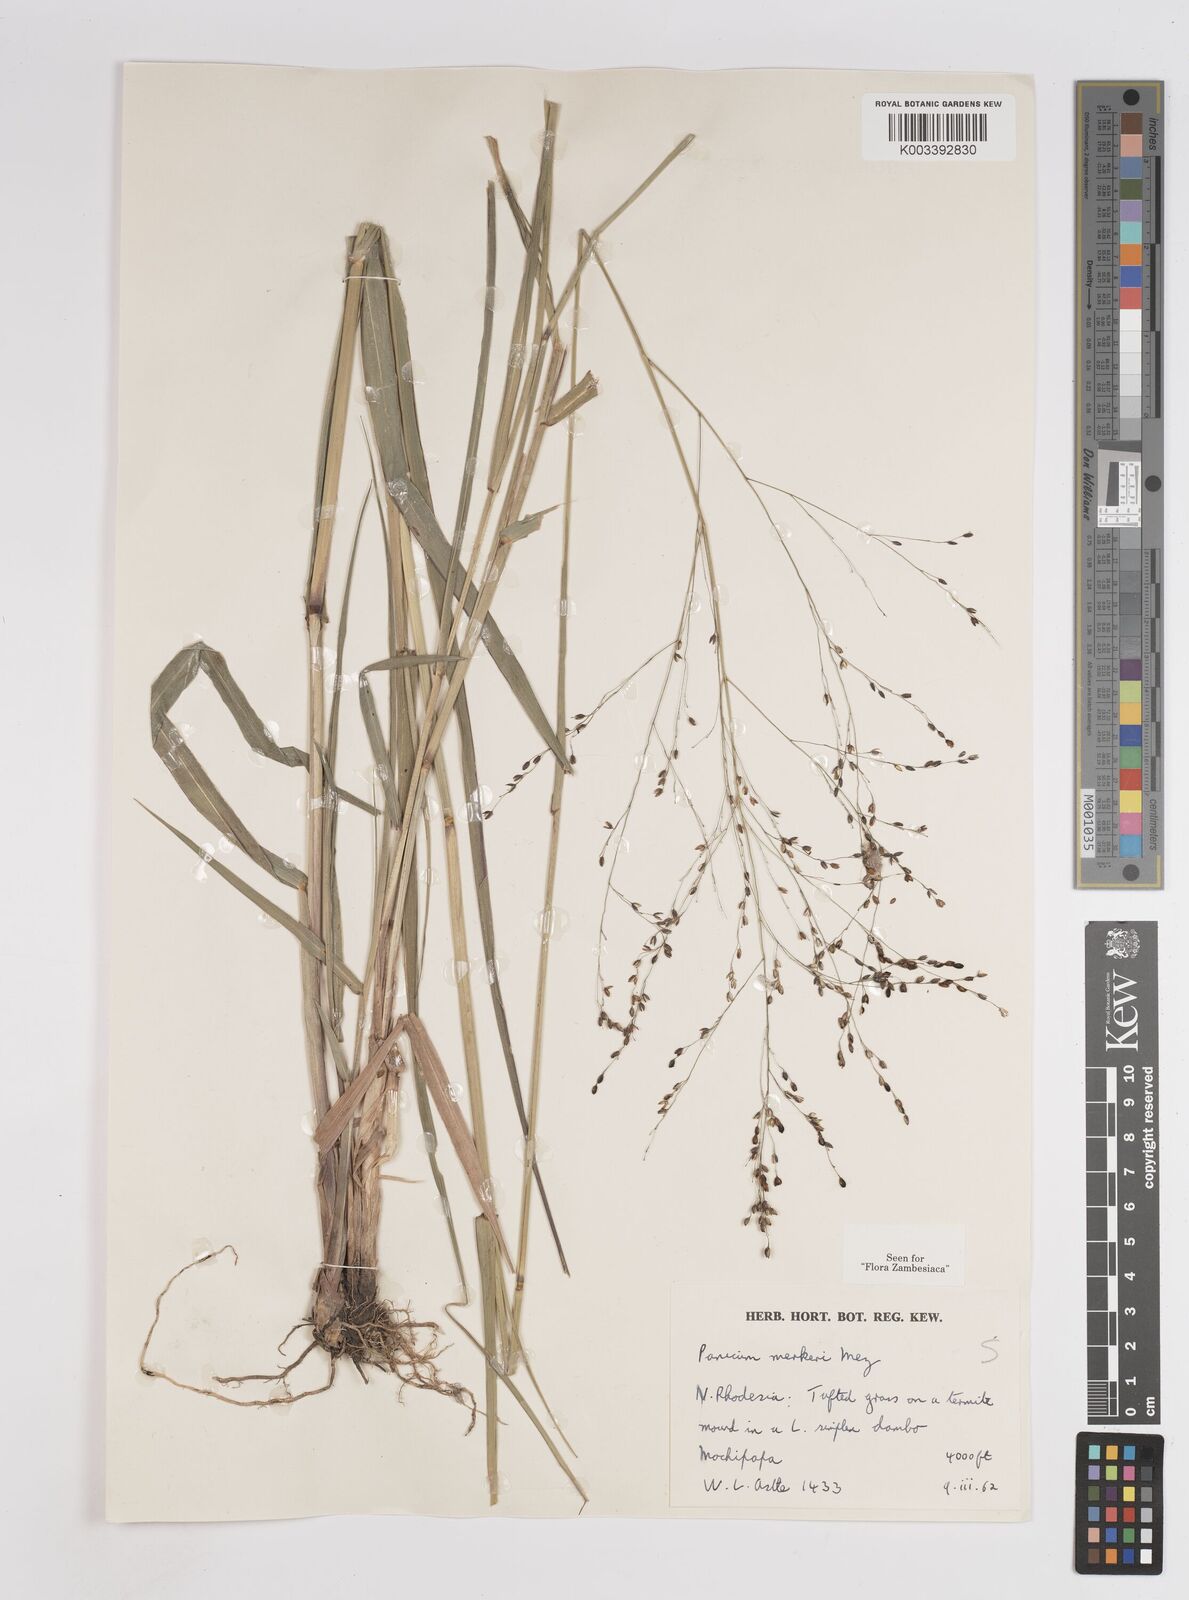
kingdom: Plantae
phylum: Tracheophyta
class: Liliopsida
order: Poales
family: Poaceae
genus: Panicum
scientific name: Panicum merkeri
